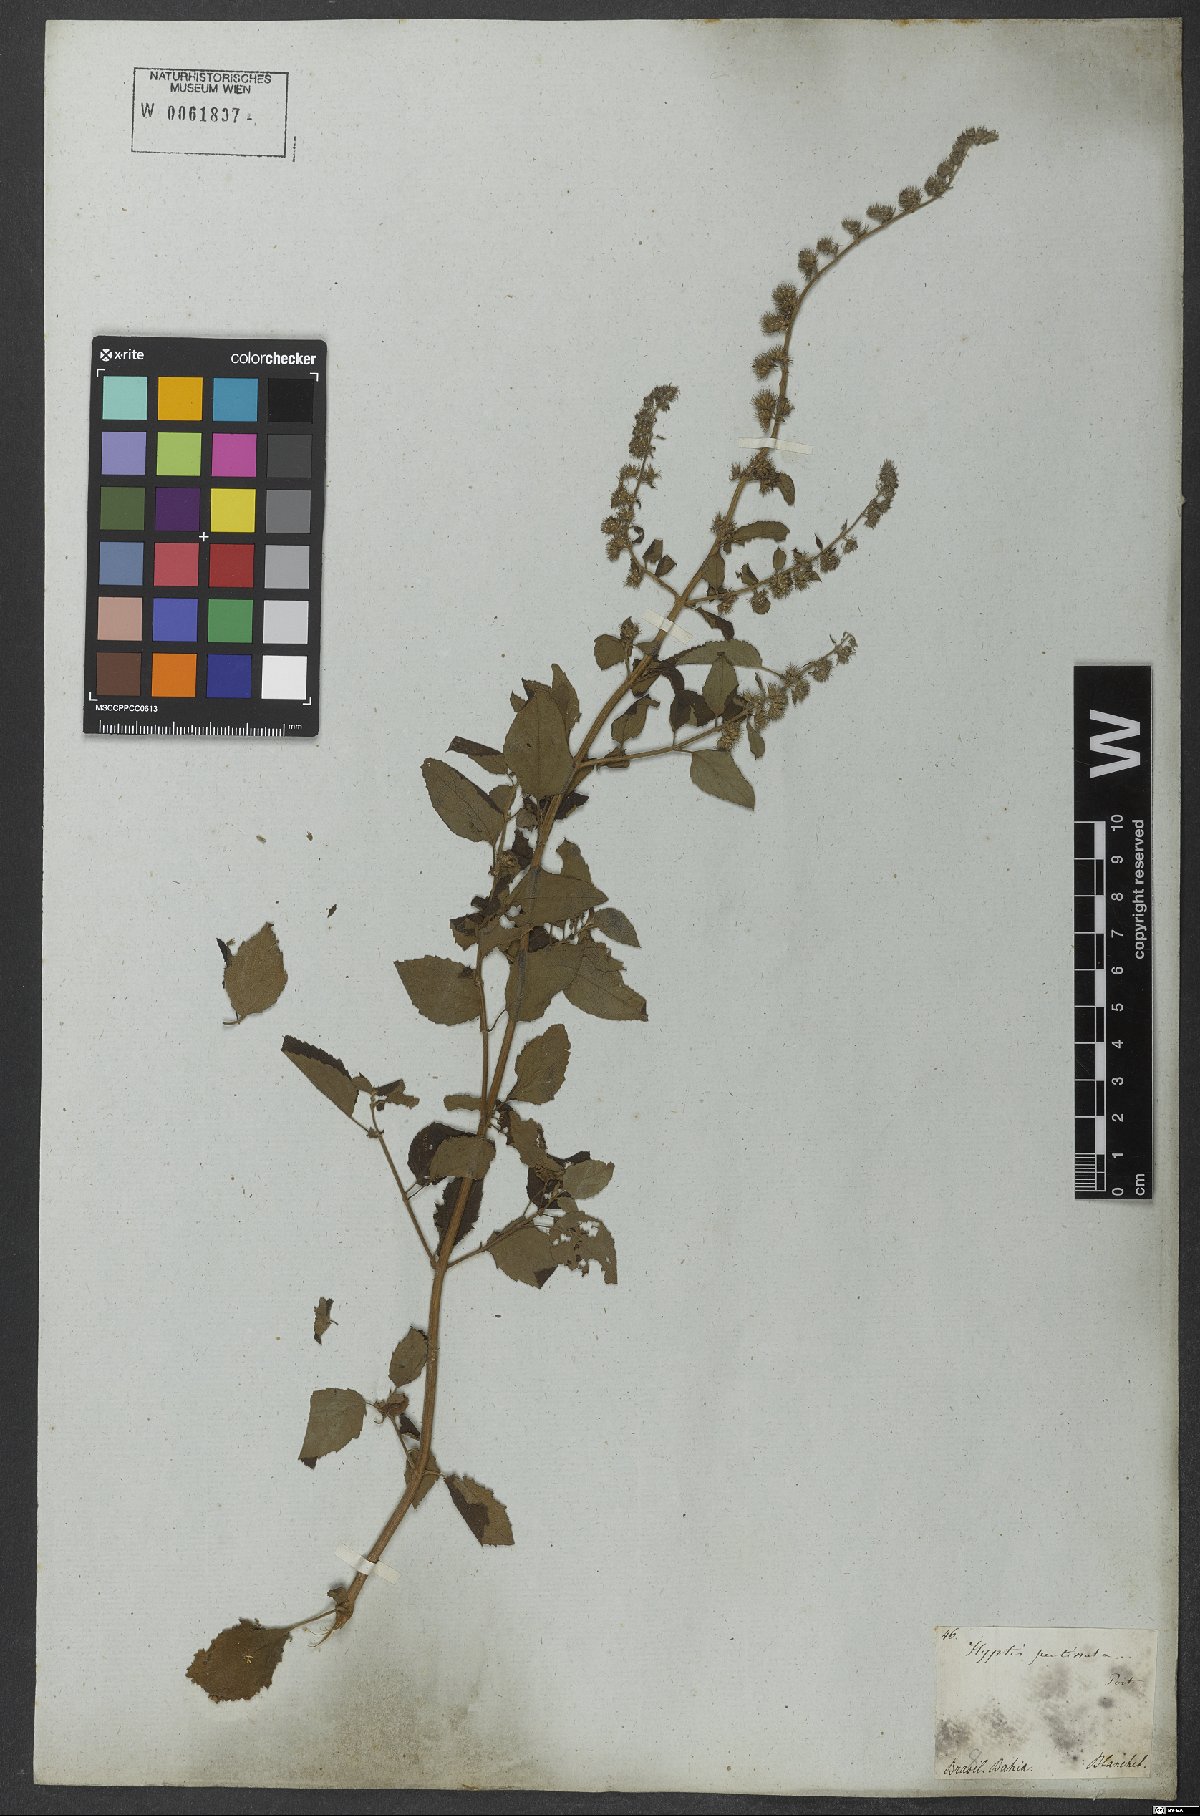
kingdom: Plantae
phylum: Tracheophyta
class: Magnoliopsida
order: Lamiales
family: Lamiaceae
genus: Mesosphaerum
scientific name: Mesosphaerum pectinatum
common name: Comb hyptis
